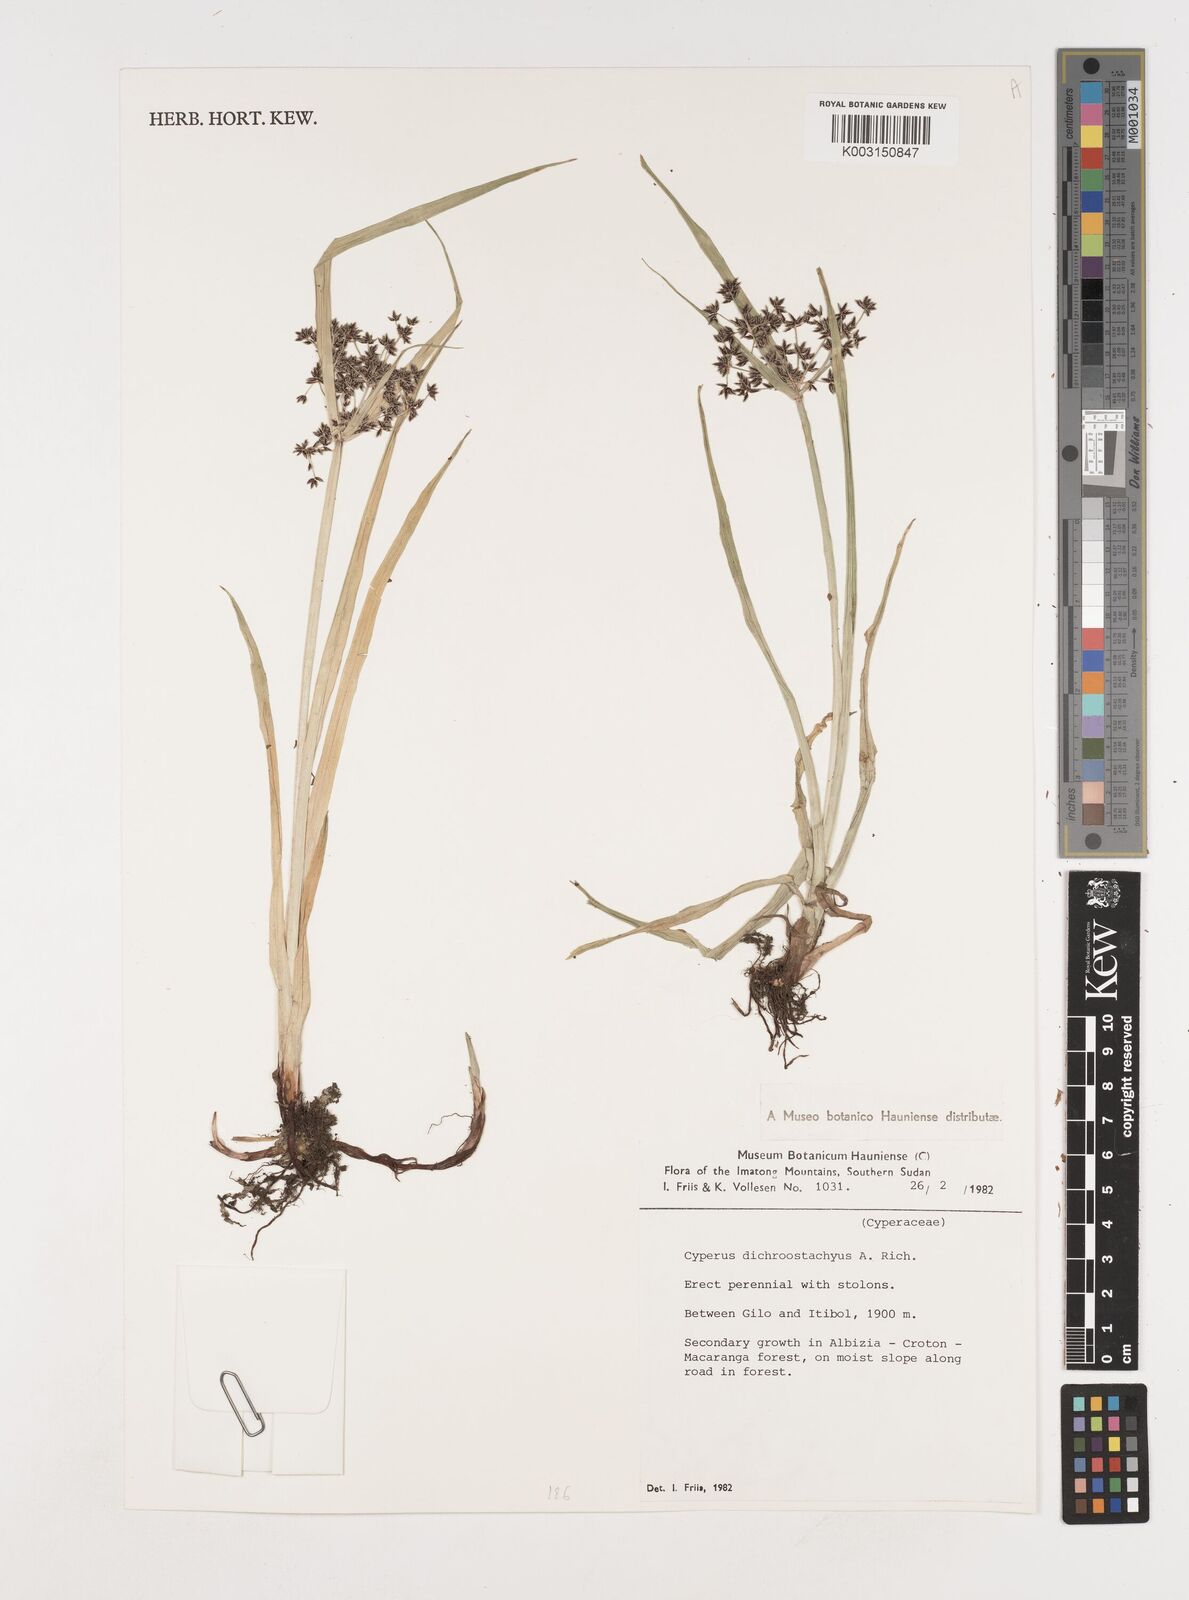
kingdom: Plantae
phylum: Tracheophyta
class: Liliopsida
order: Poales
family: Cyperaceae
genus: Cyperus
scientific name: Cyperus dichrostachyus
